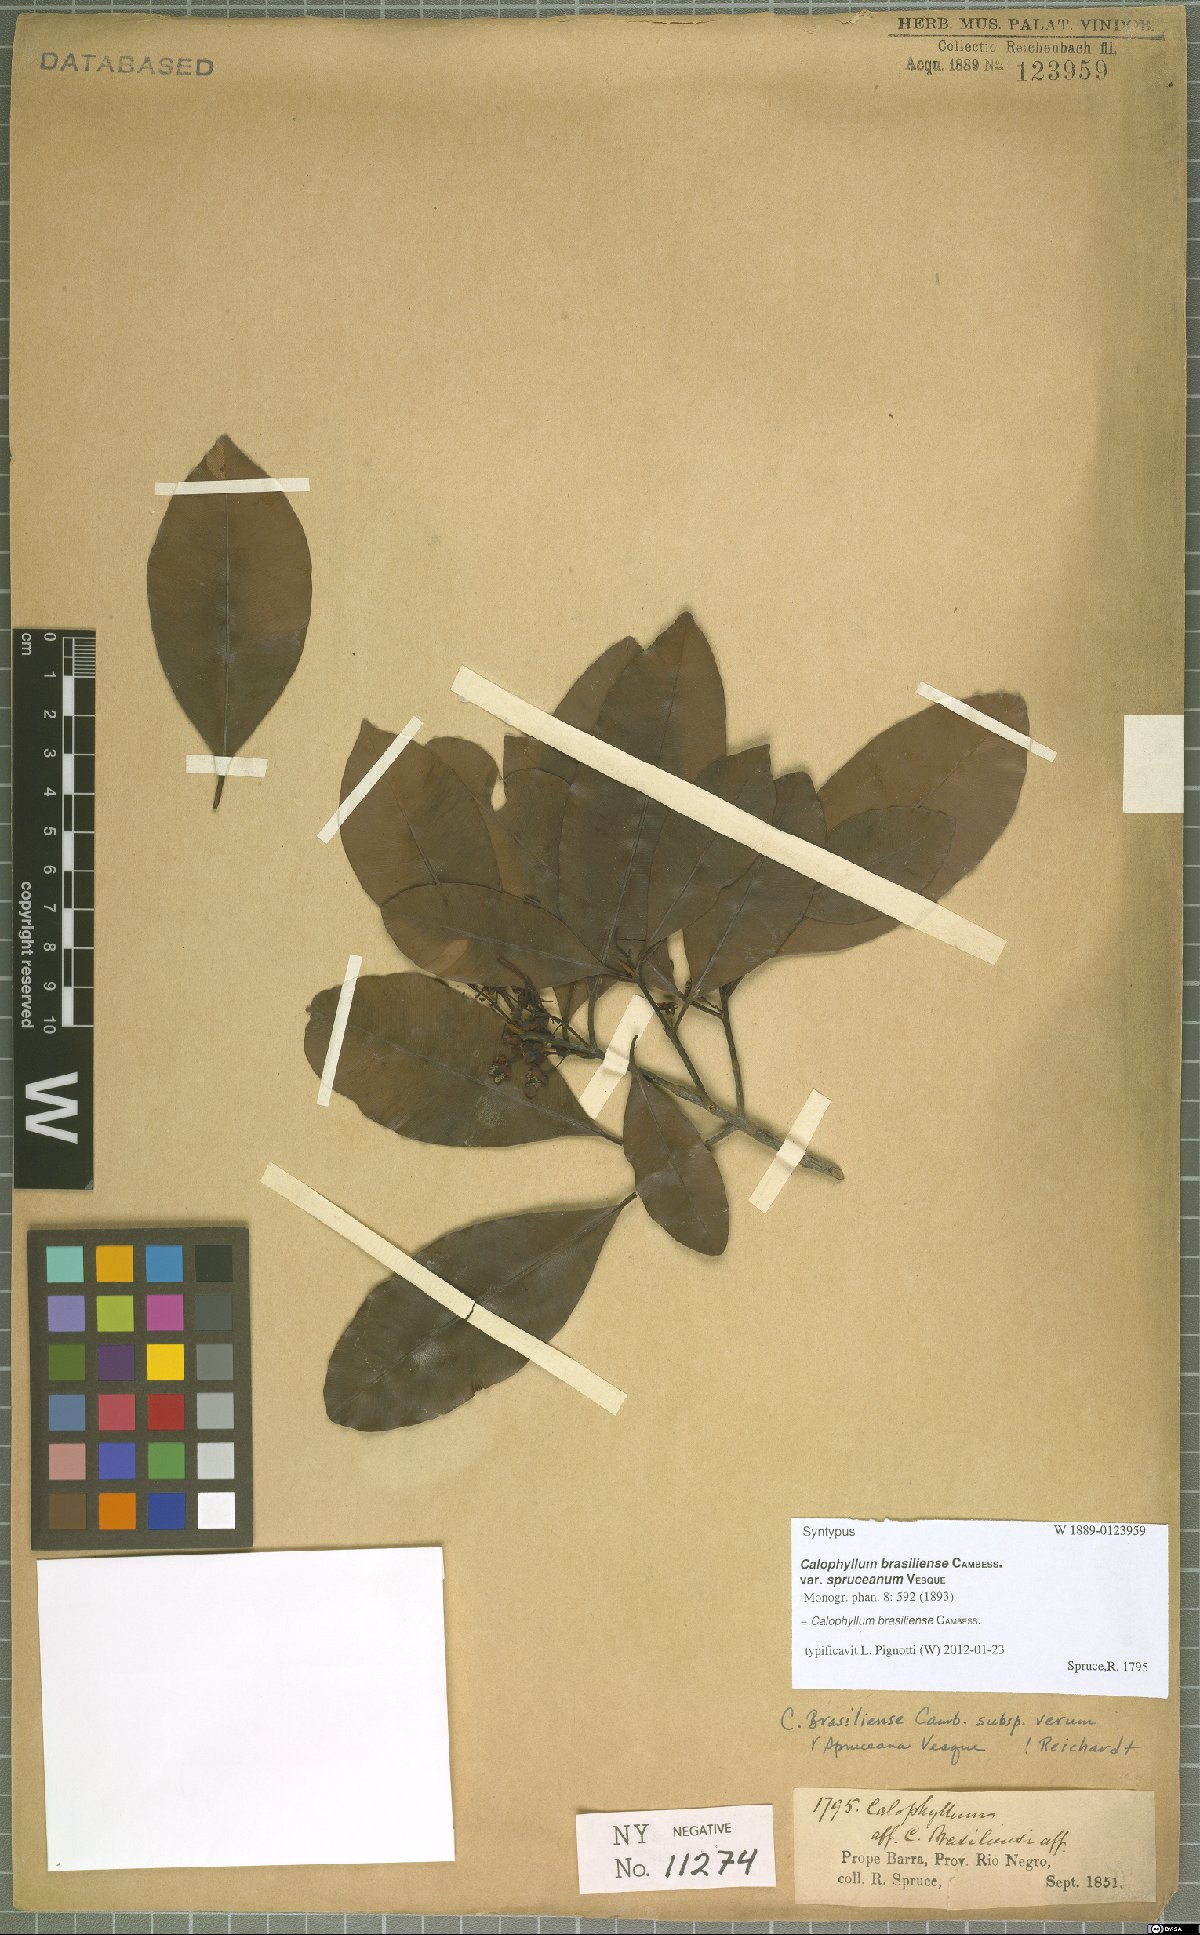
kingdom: Plantae
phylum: Tracheophyta
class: Magnoliopsida
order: Malpighiales
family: Calophyllaceae
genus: Calophyllum
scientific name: Calophyllum brasiliense
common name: Santa maria
